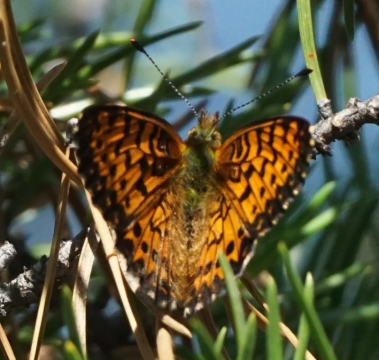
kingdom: Animalia
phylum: Arthropoda
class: Insecta
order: Lepidoptera
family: Nymphalidae
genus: Boloria
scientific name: Boloria chariclea
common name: Arctic Fritillary
